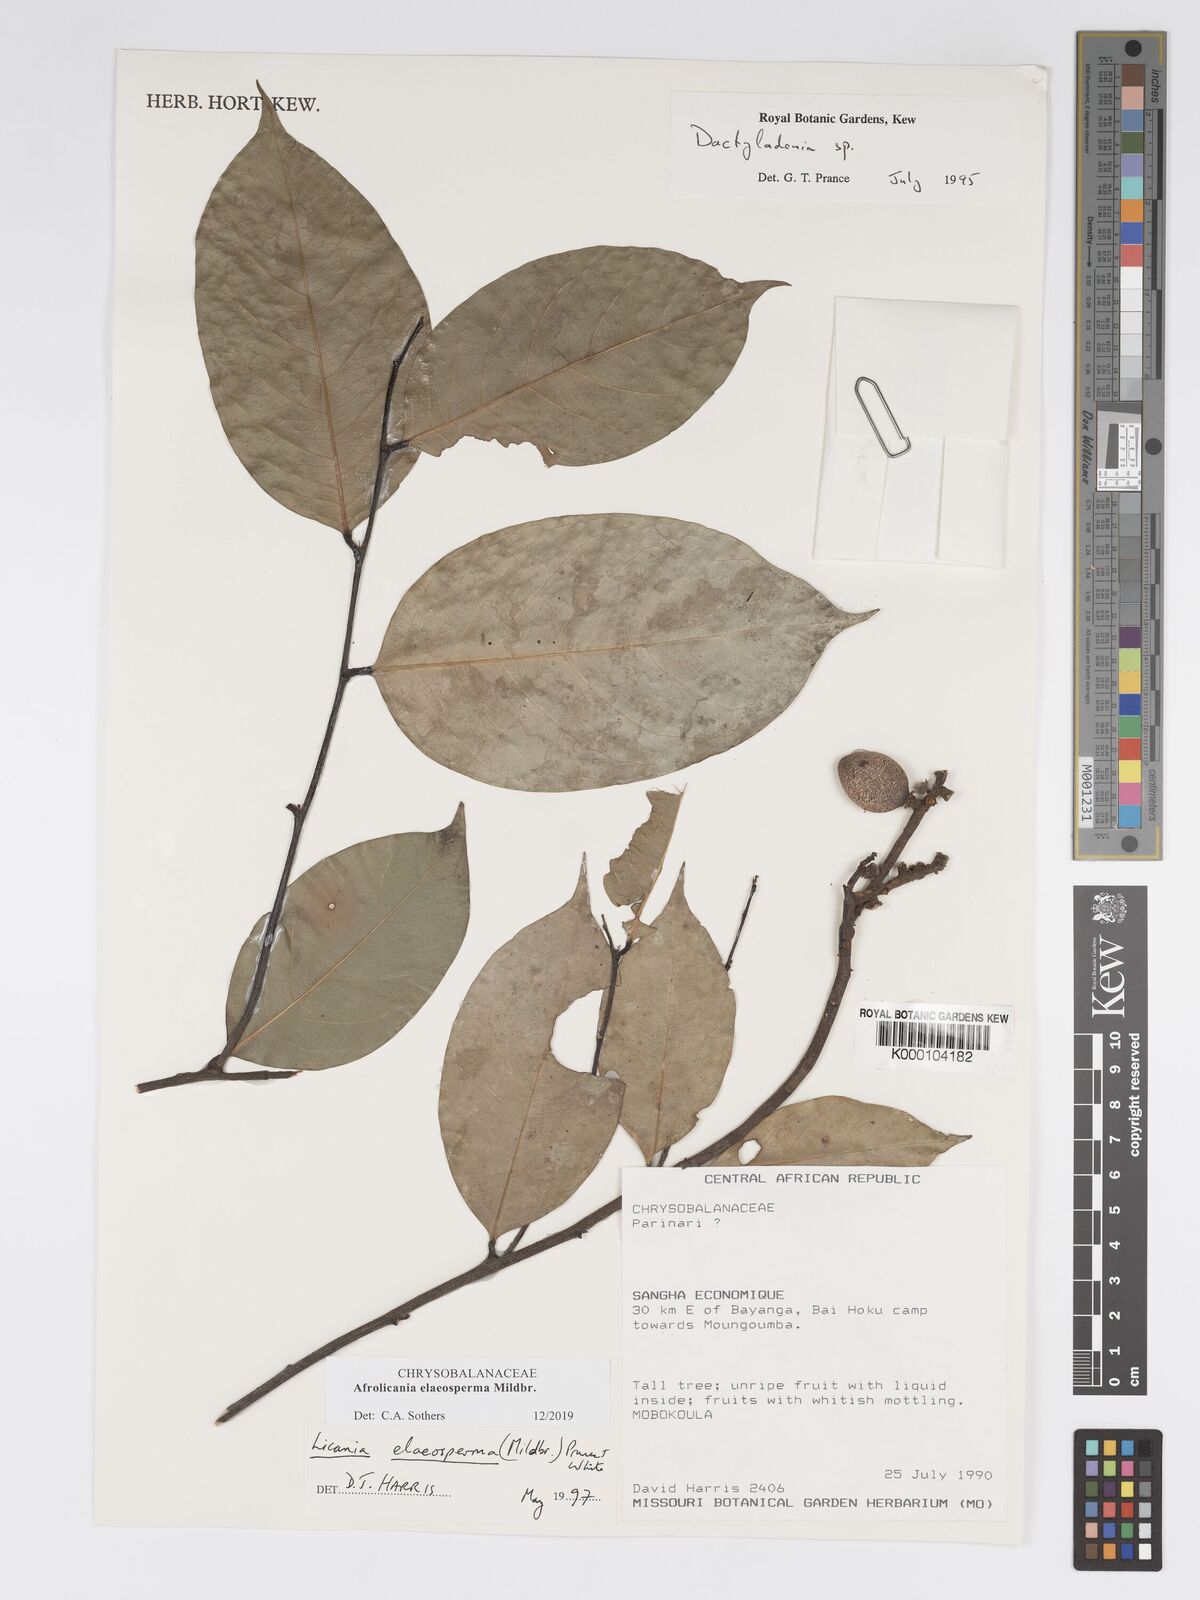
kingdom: Plantae
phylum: Tracheophyta
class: Magnoliopsida
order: Malpighiales
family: Chrysobalanaceae
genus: Afrolicania
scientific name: Afrolicania elaeosperma
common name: Nikko
